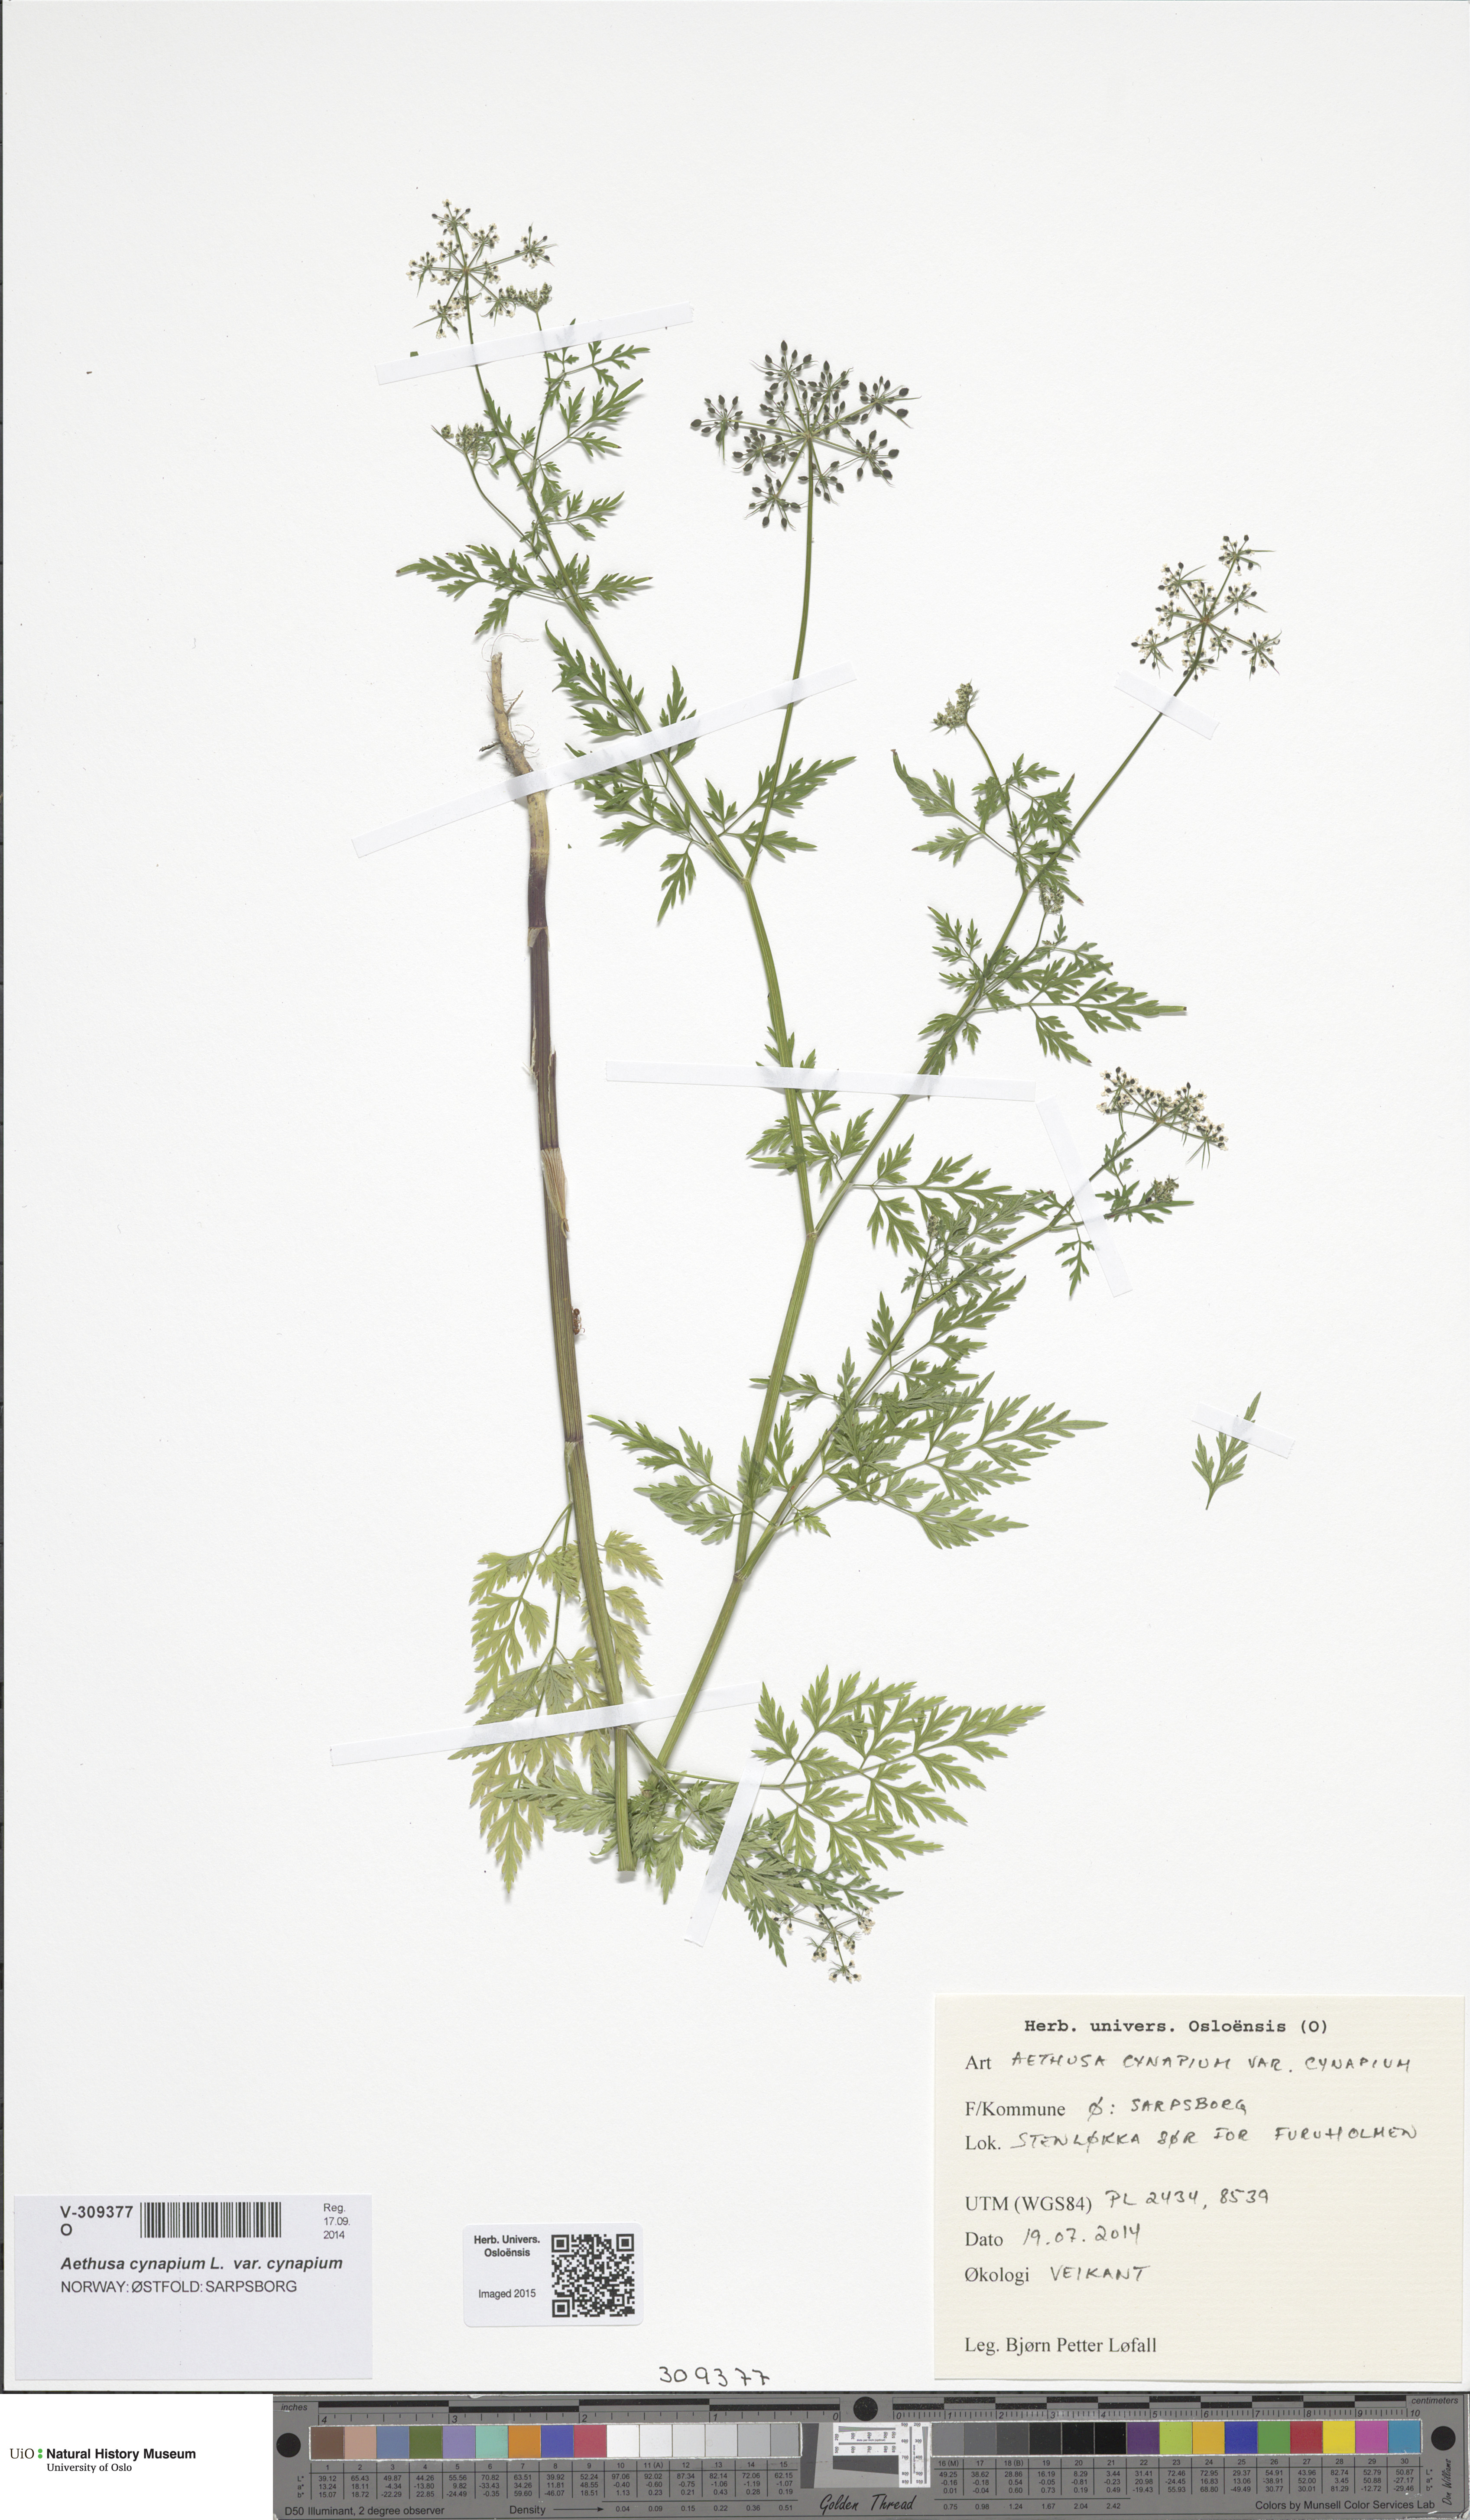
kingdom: Plantae
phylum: Tracheophyta
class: Magnoliopsida
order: Apiales
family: Apiaceae
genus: Aethusa
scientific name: Aethusa cynapium
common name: Fool's parsley
